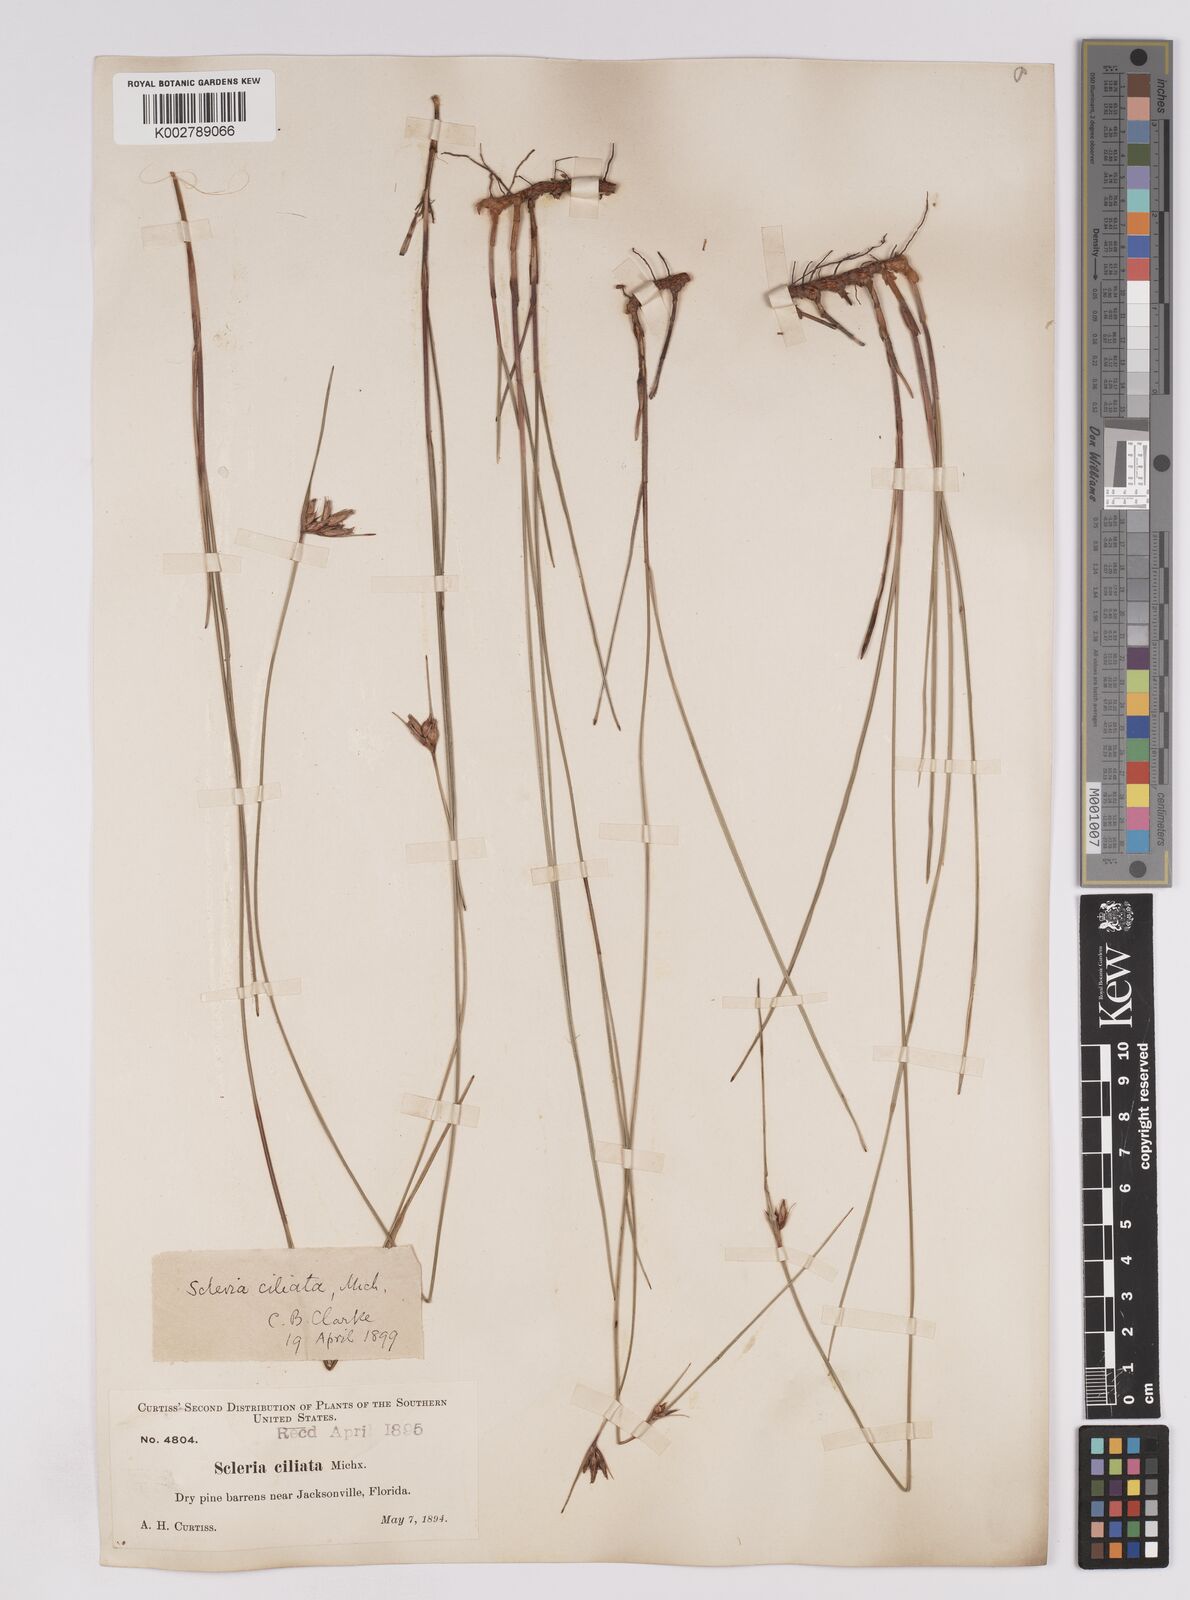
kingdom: Plantae
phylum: Tracheophyta
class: Liliopsida
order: Poales
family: Cyperaceae
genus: Scleria
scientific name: Scleria ciliata
